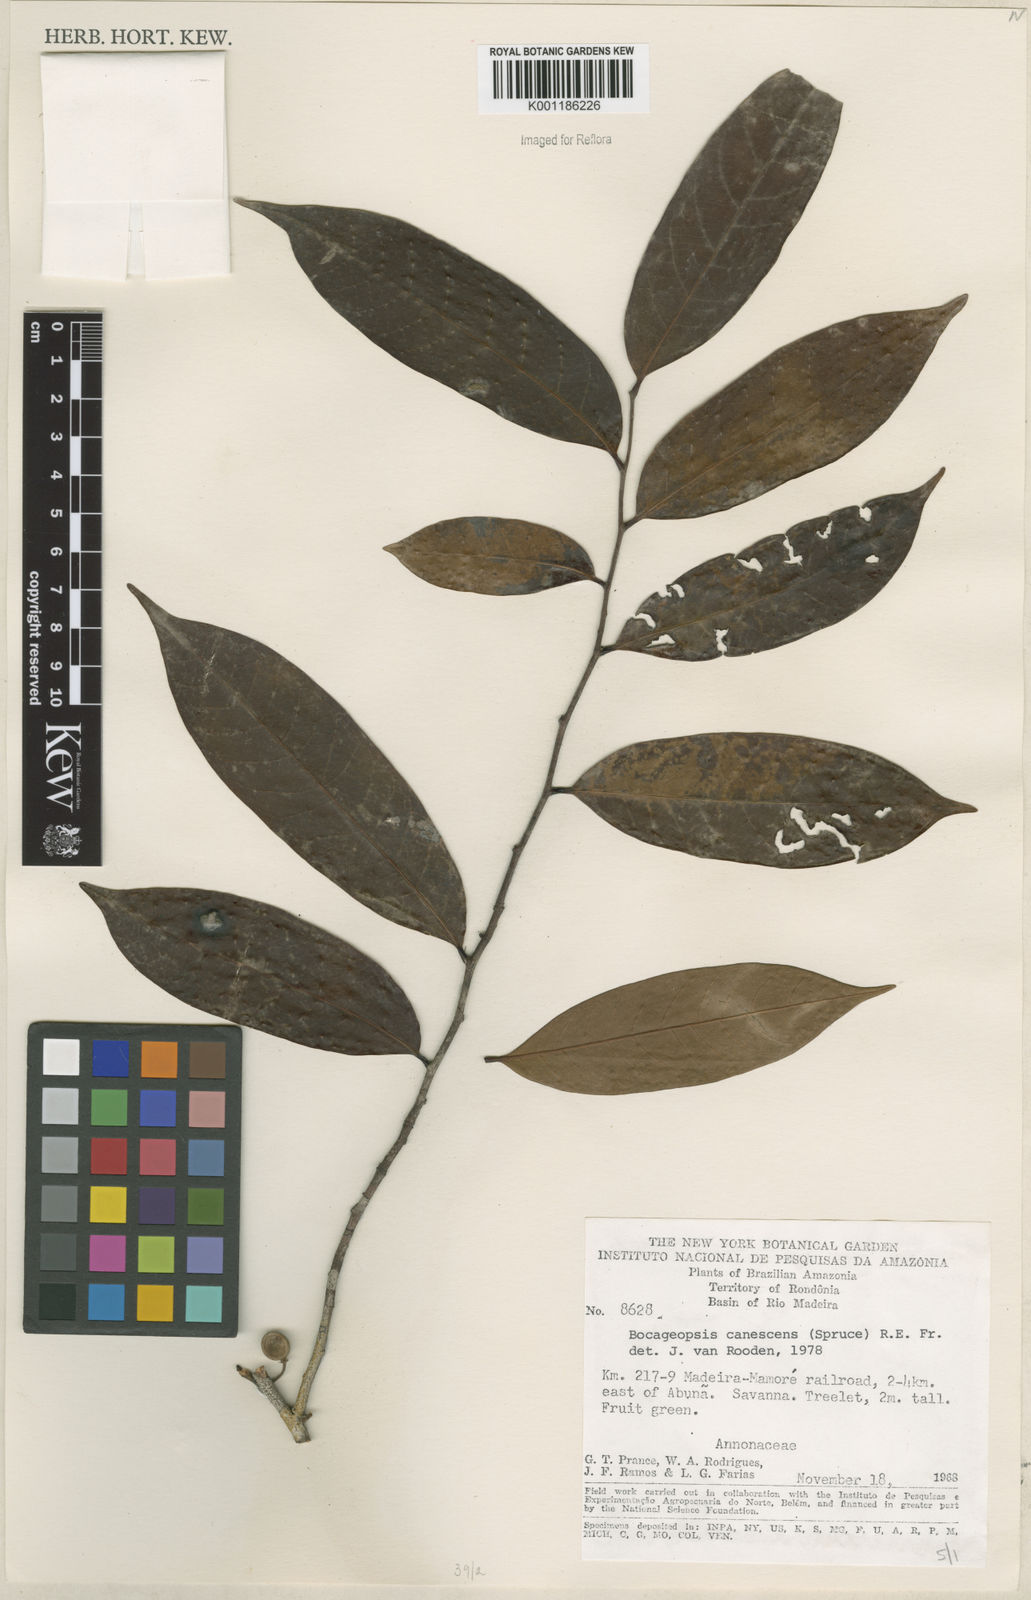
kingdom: Plantae
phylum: Tracheophyta
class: Magnoliopsida
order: Magnoliales
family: Annonaceae
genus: Bocageopsis
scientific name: Bocageopsis canescens
